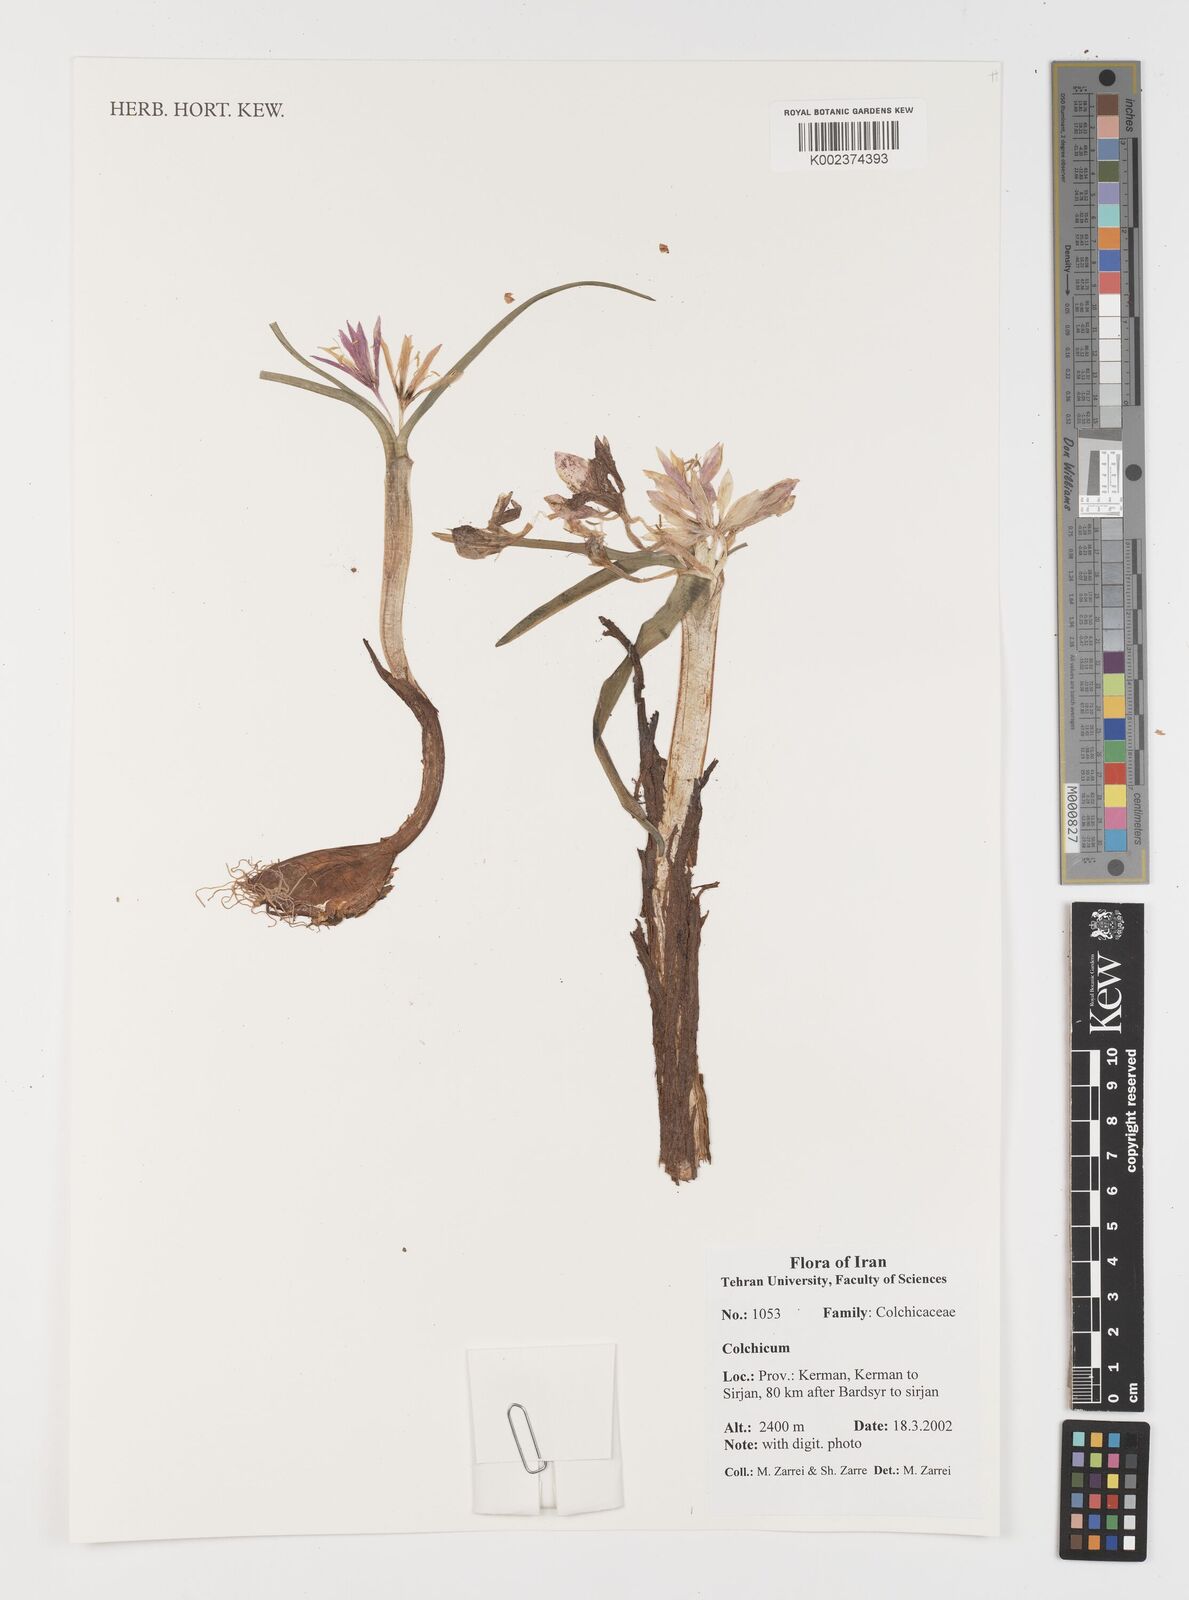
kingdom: Plantae
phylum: Tracheophyta
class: Liliopsida
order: Liliales
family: Colchicaceae
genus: Colchicum
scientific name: Colchicum
